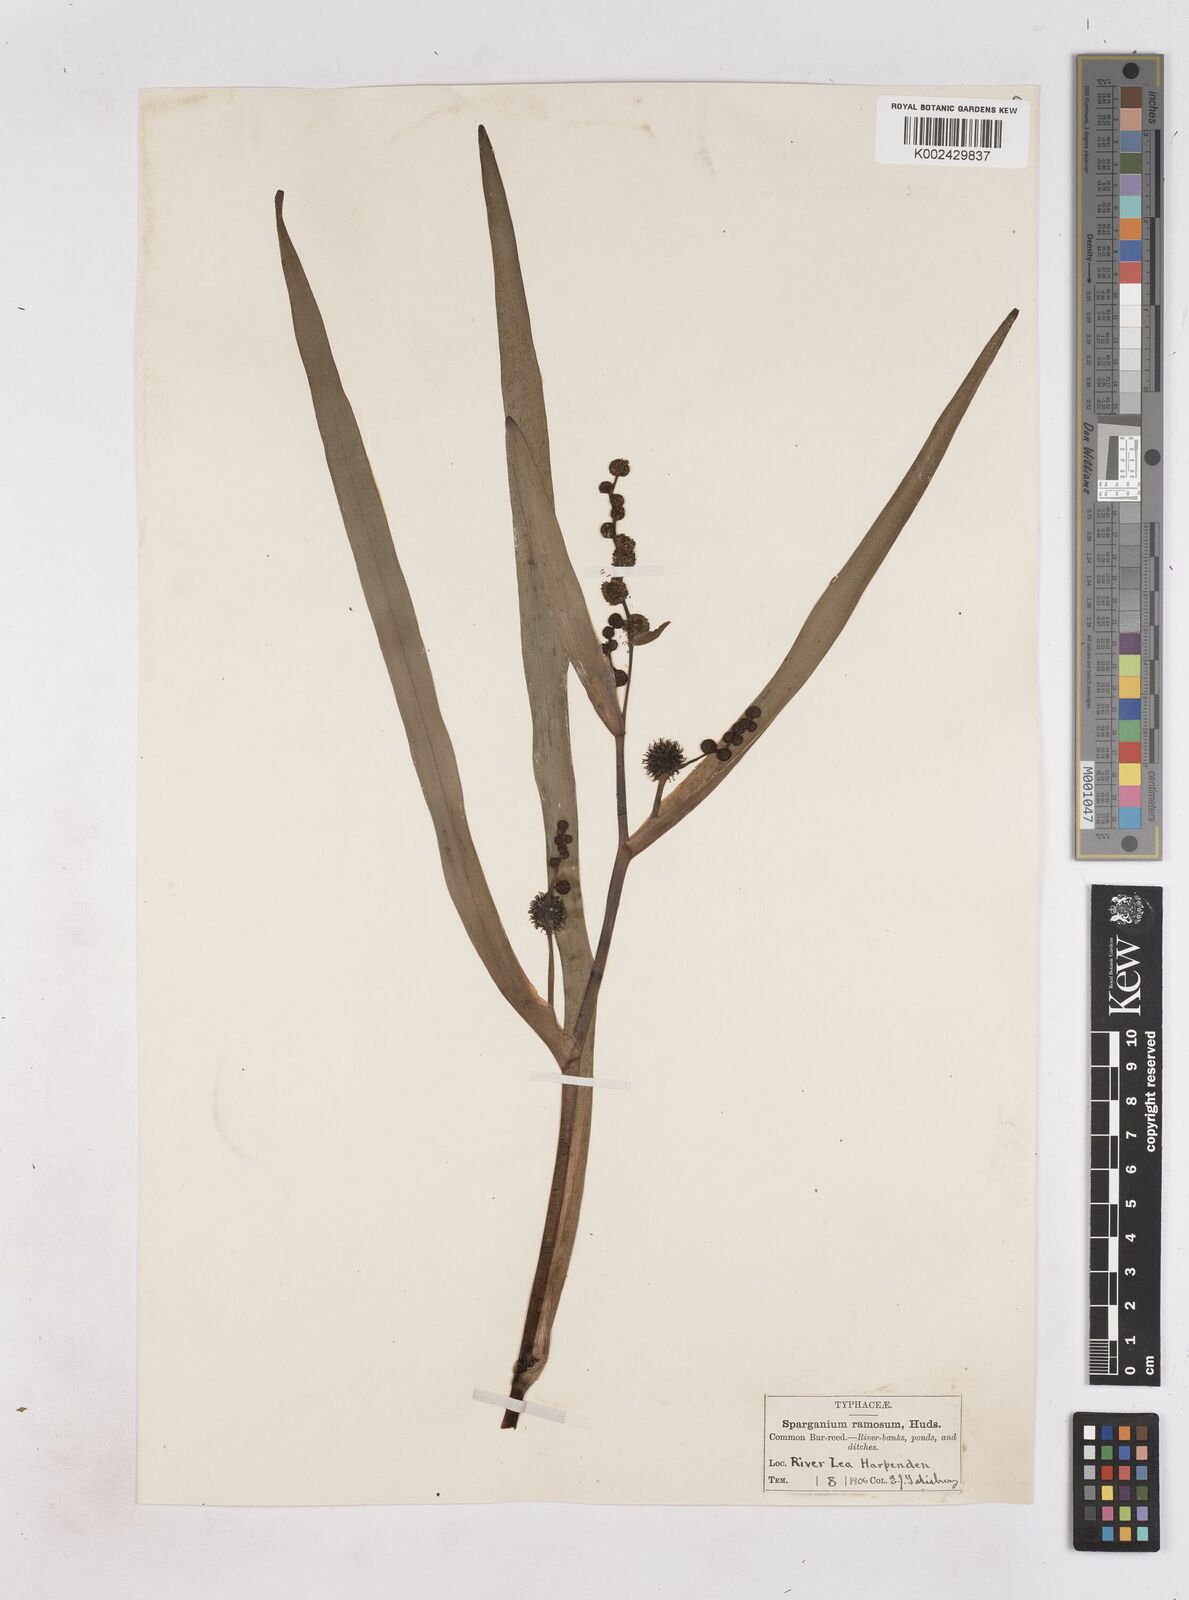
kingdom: Plantae
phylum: Tracheophyta
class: Liliopsida
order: Poales
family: Typhaceae
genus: Sparganium
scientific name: Sparganium erectum
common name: Branched bur-reed
